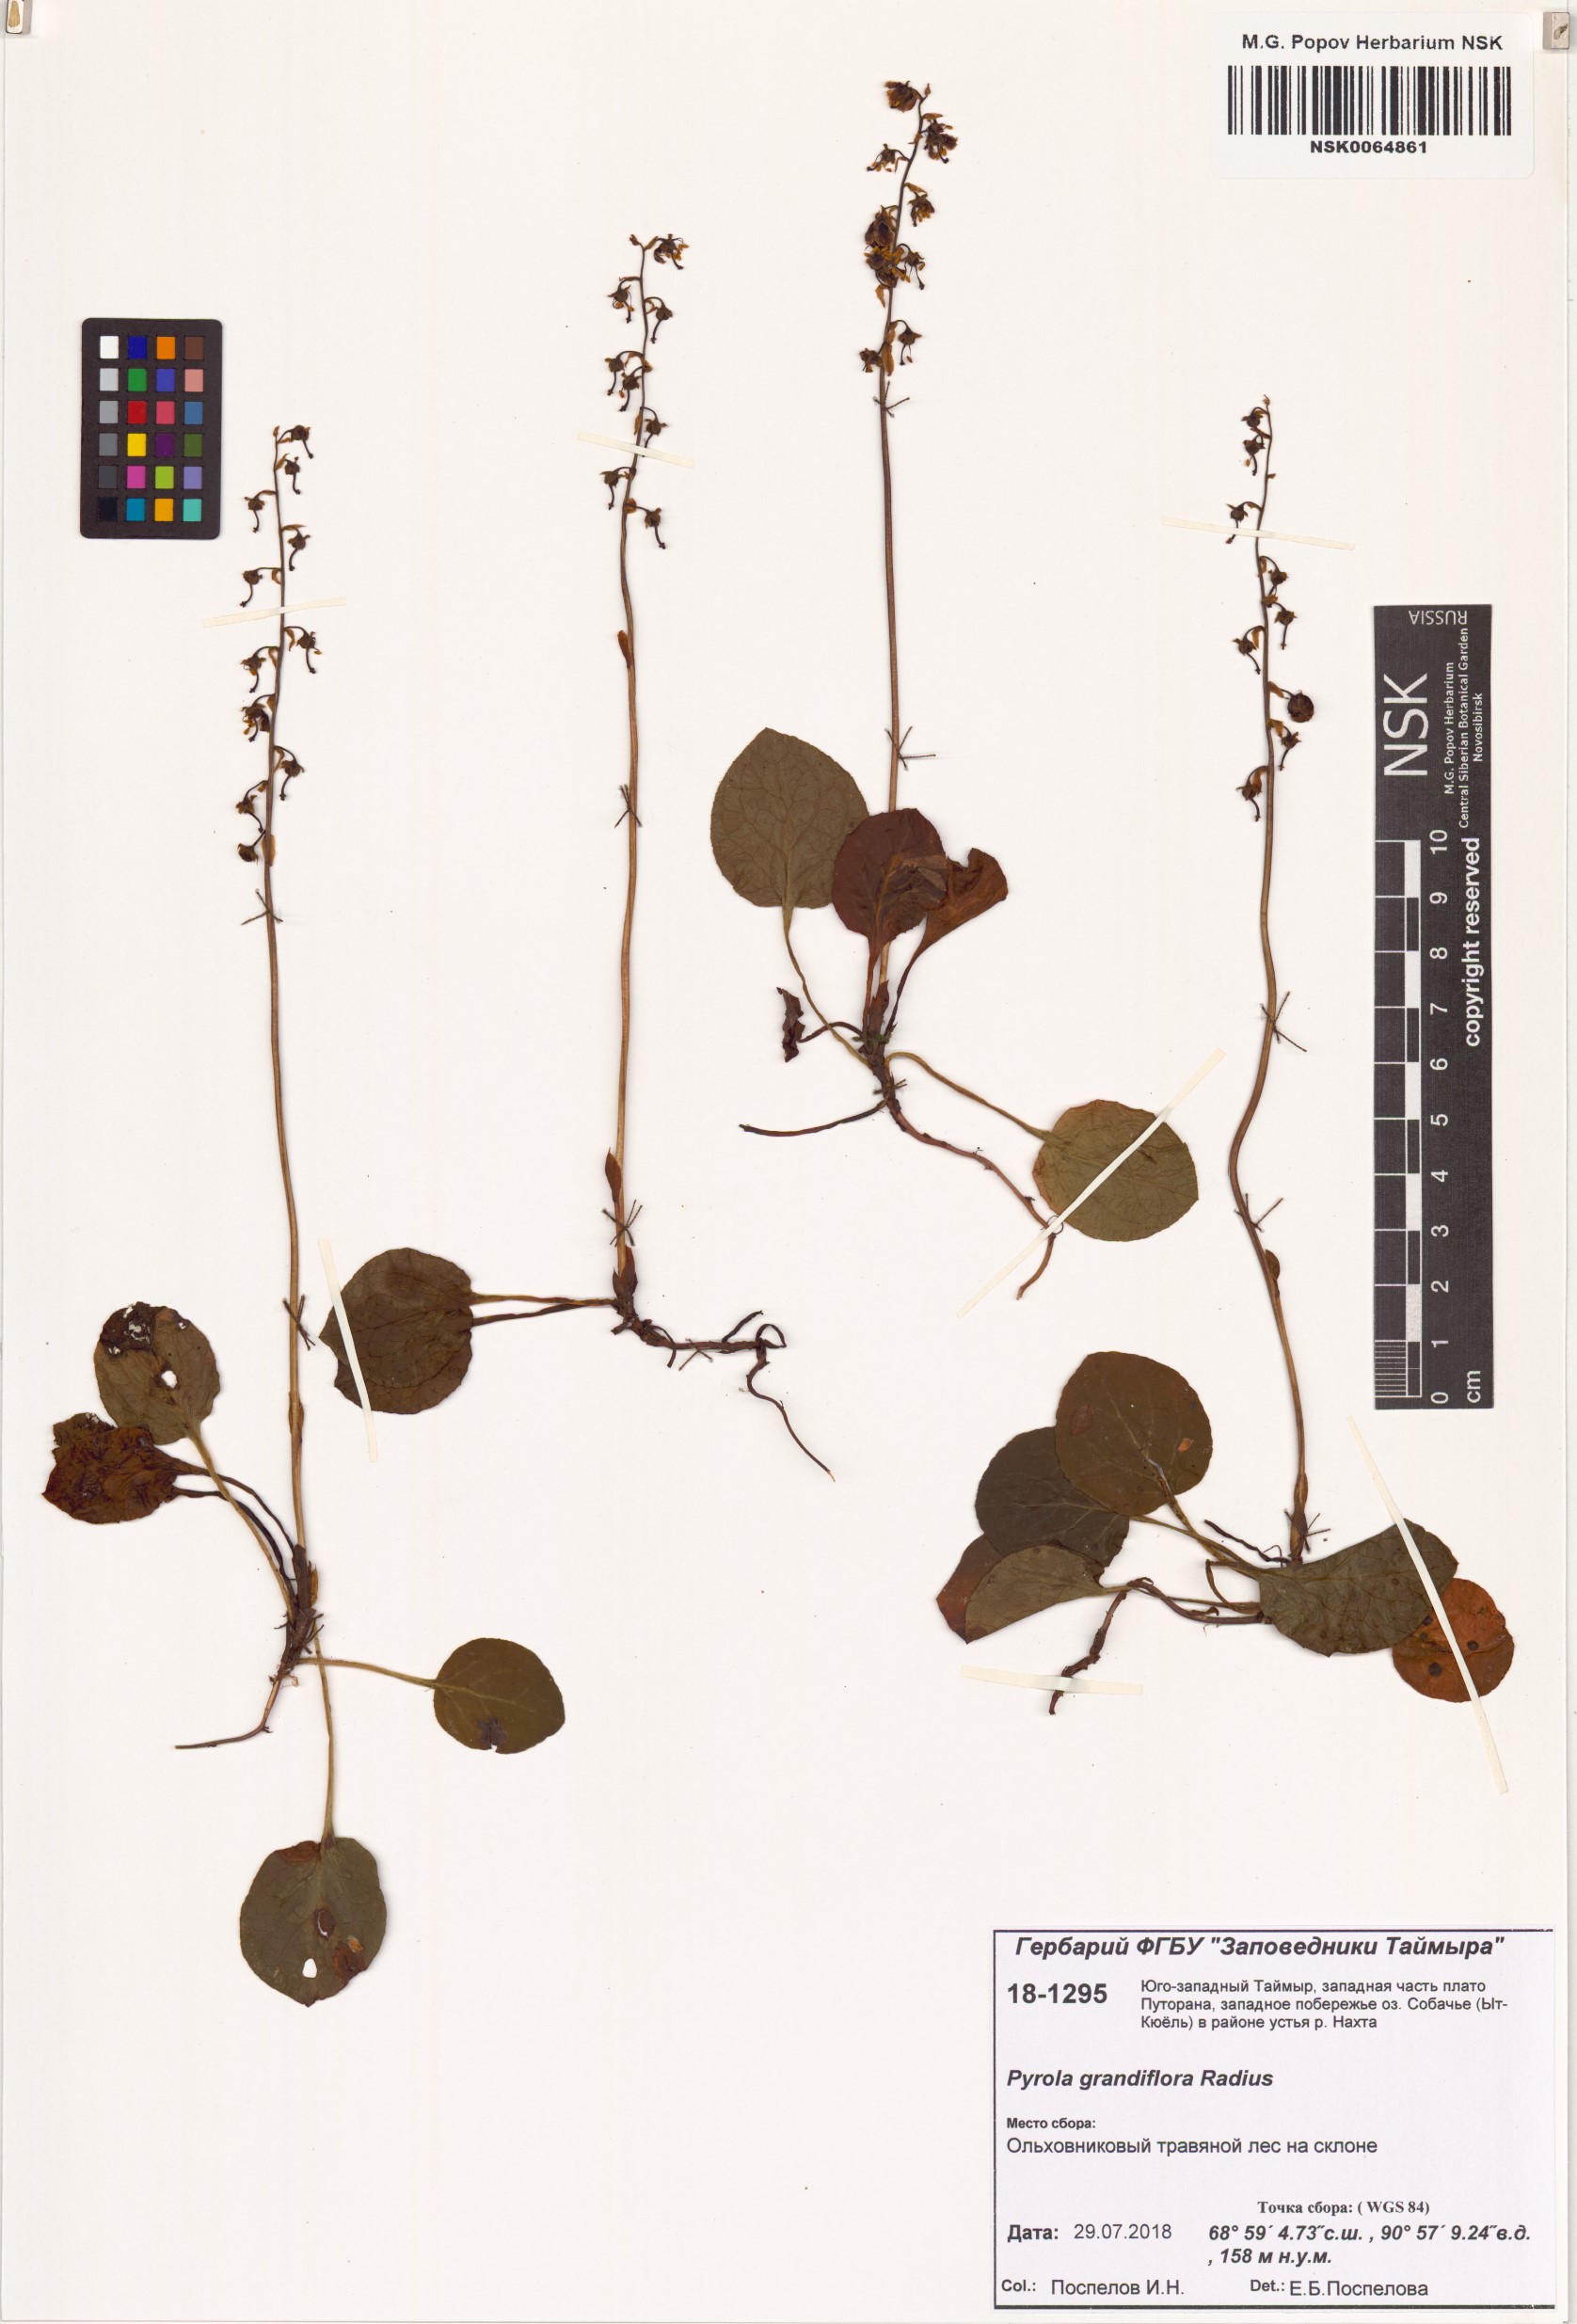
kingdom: Plantae
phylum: Tracheophyta
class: Magnoliopsida
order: Ericales
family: Ericaceae
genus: Pyrola
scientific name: Pyrola grandiflora
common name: Arctic pyrola
